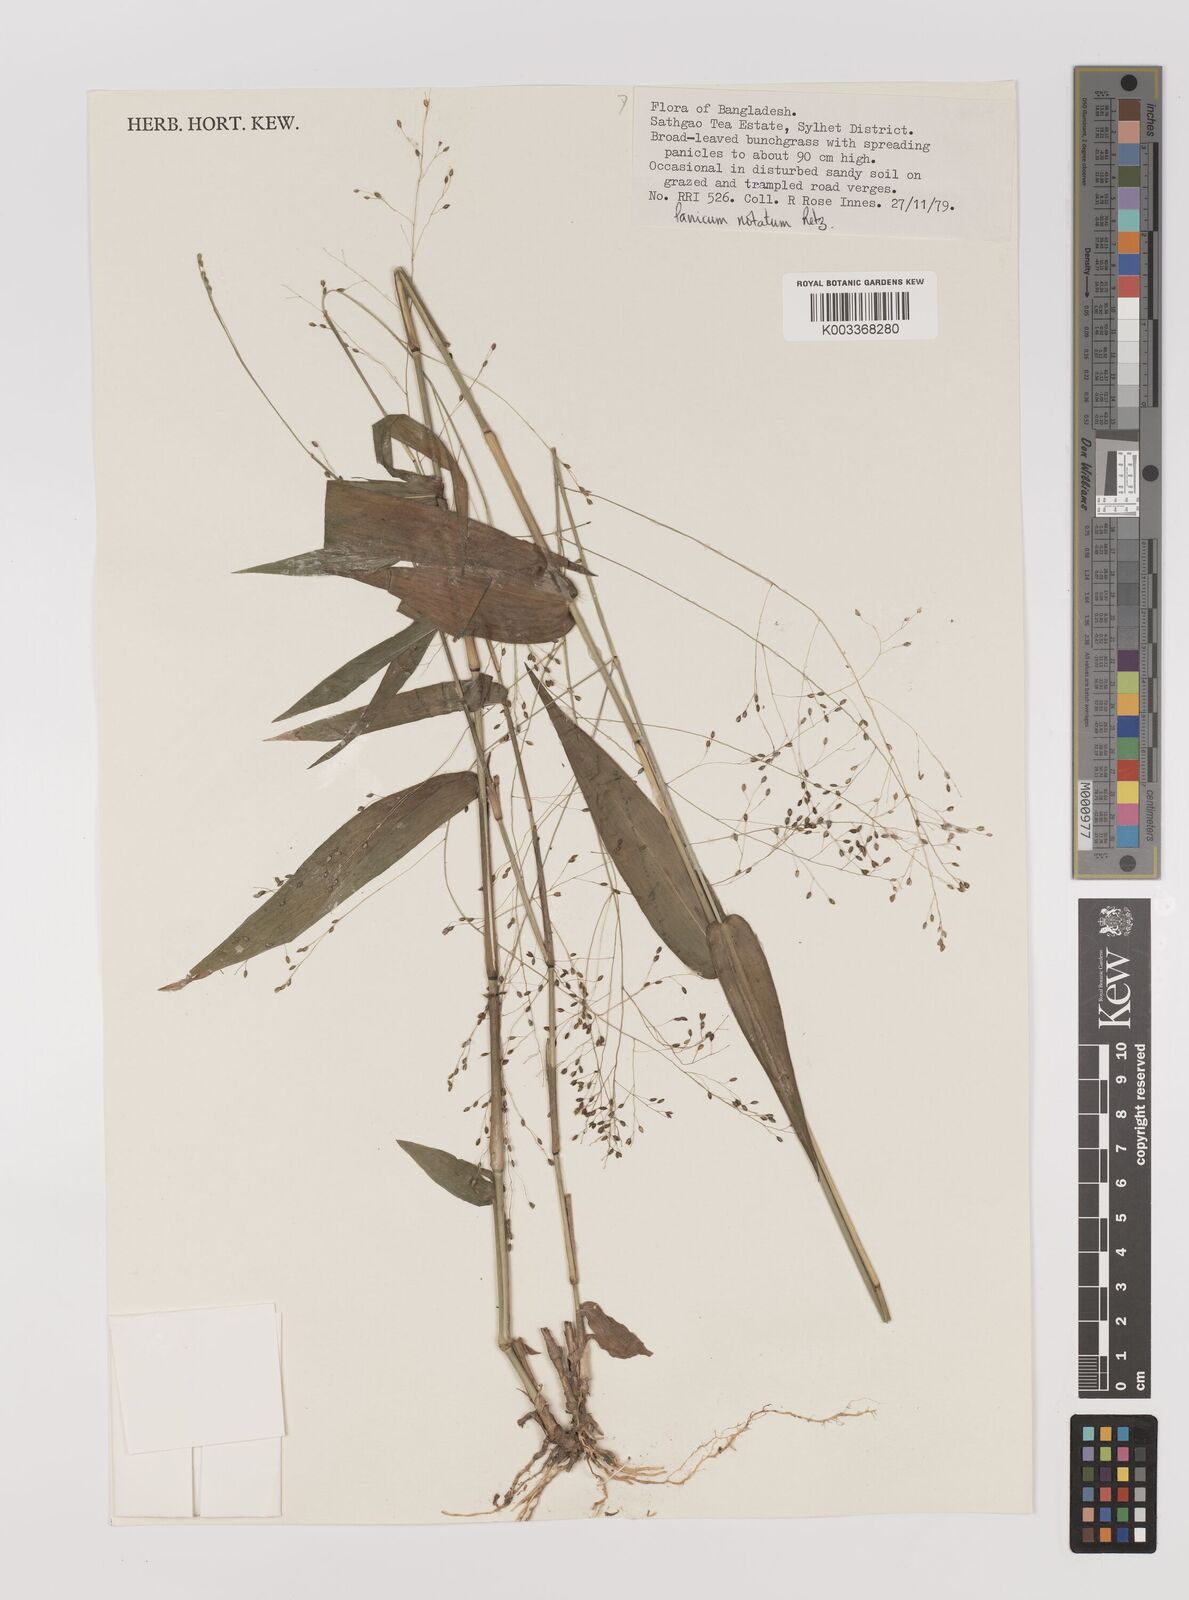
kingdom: Plantae
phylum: Tracheophyta
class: Liliopsida
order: Poales
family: Poaceae
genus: Panicum
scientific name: Panicum notatum
